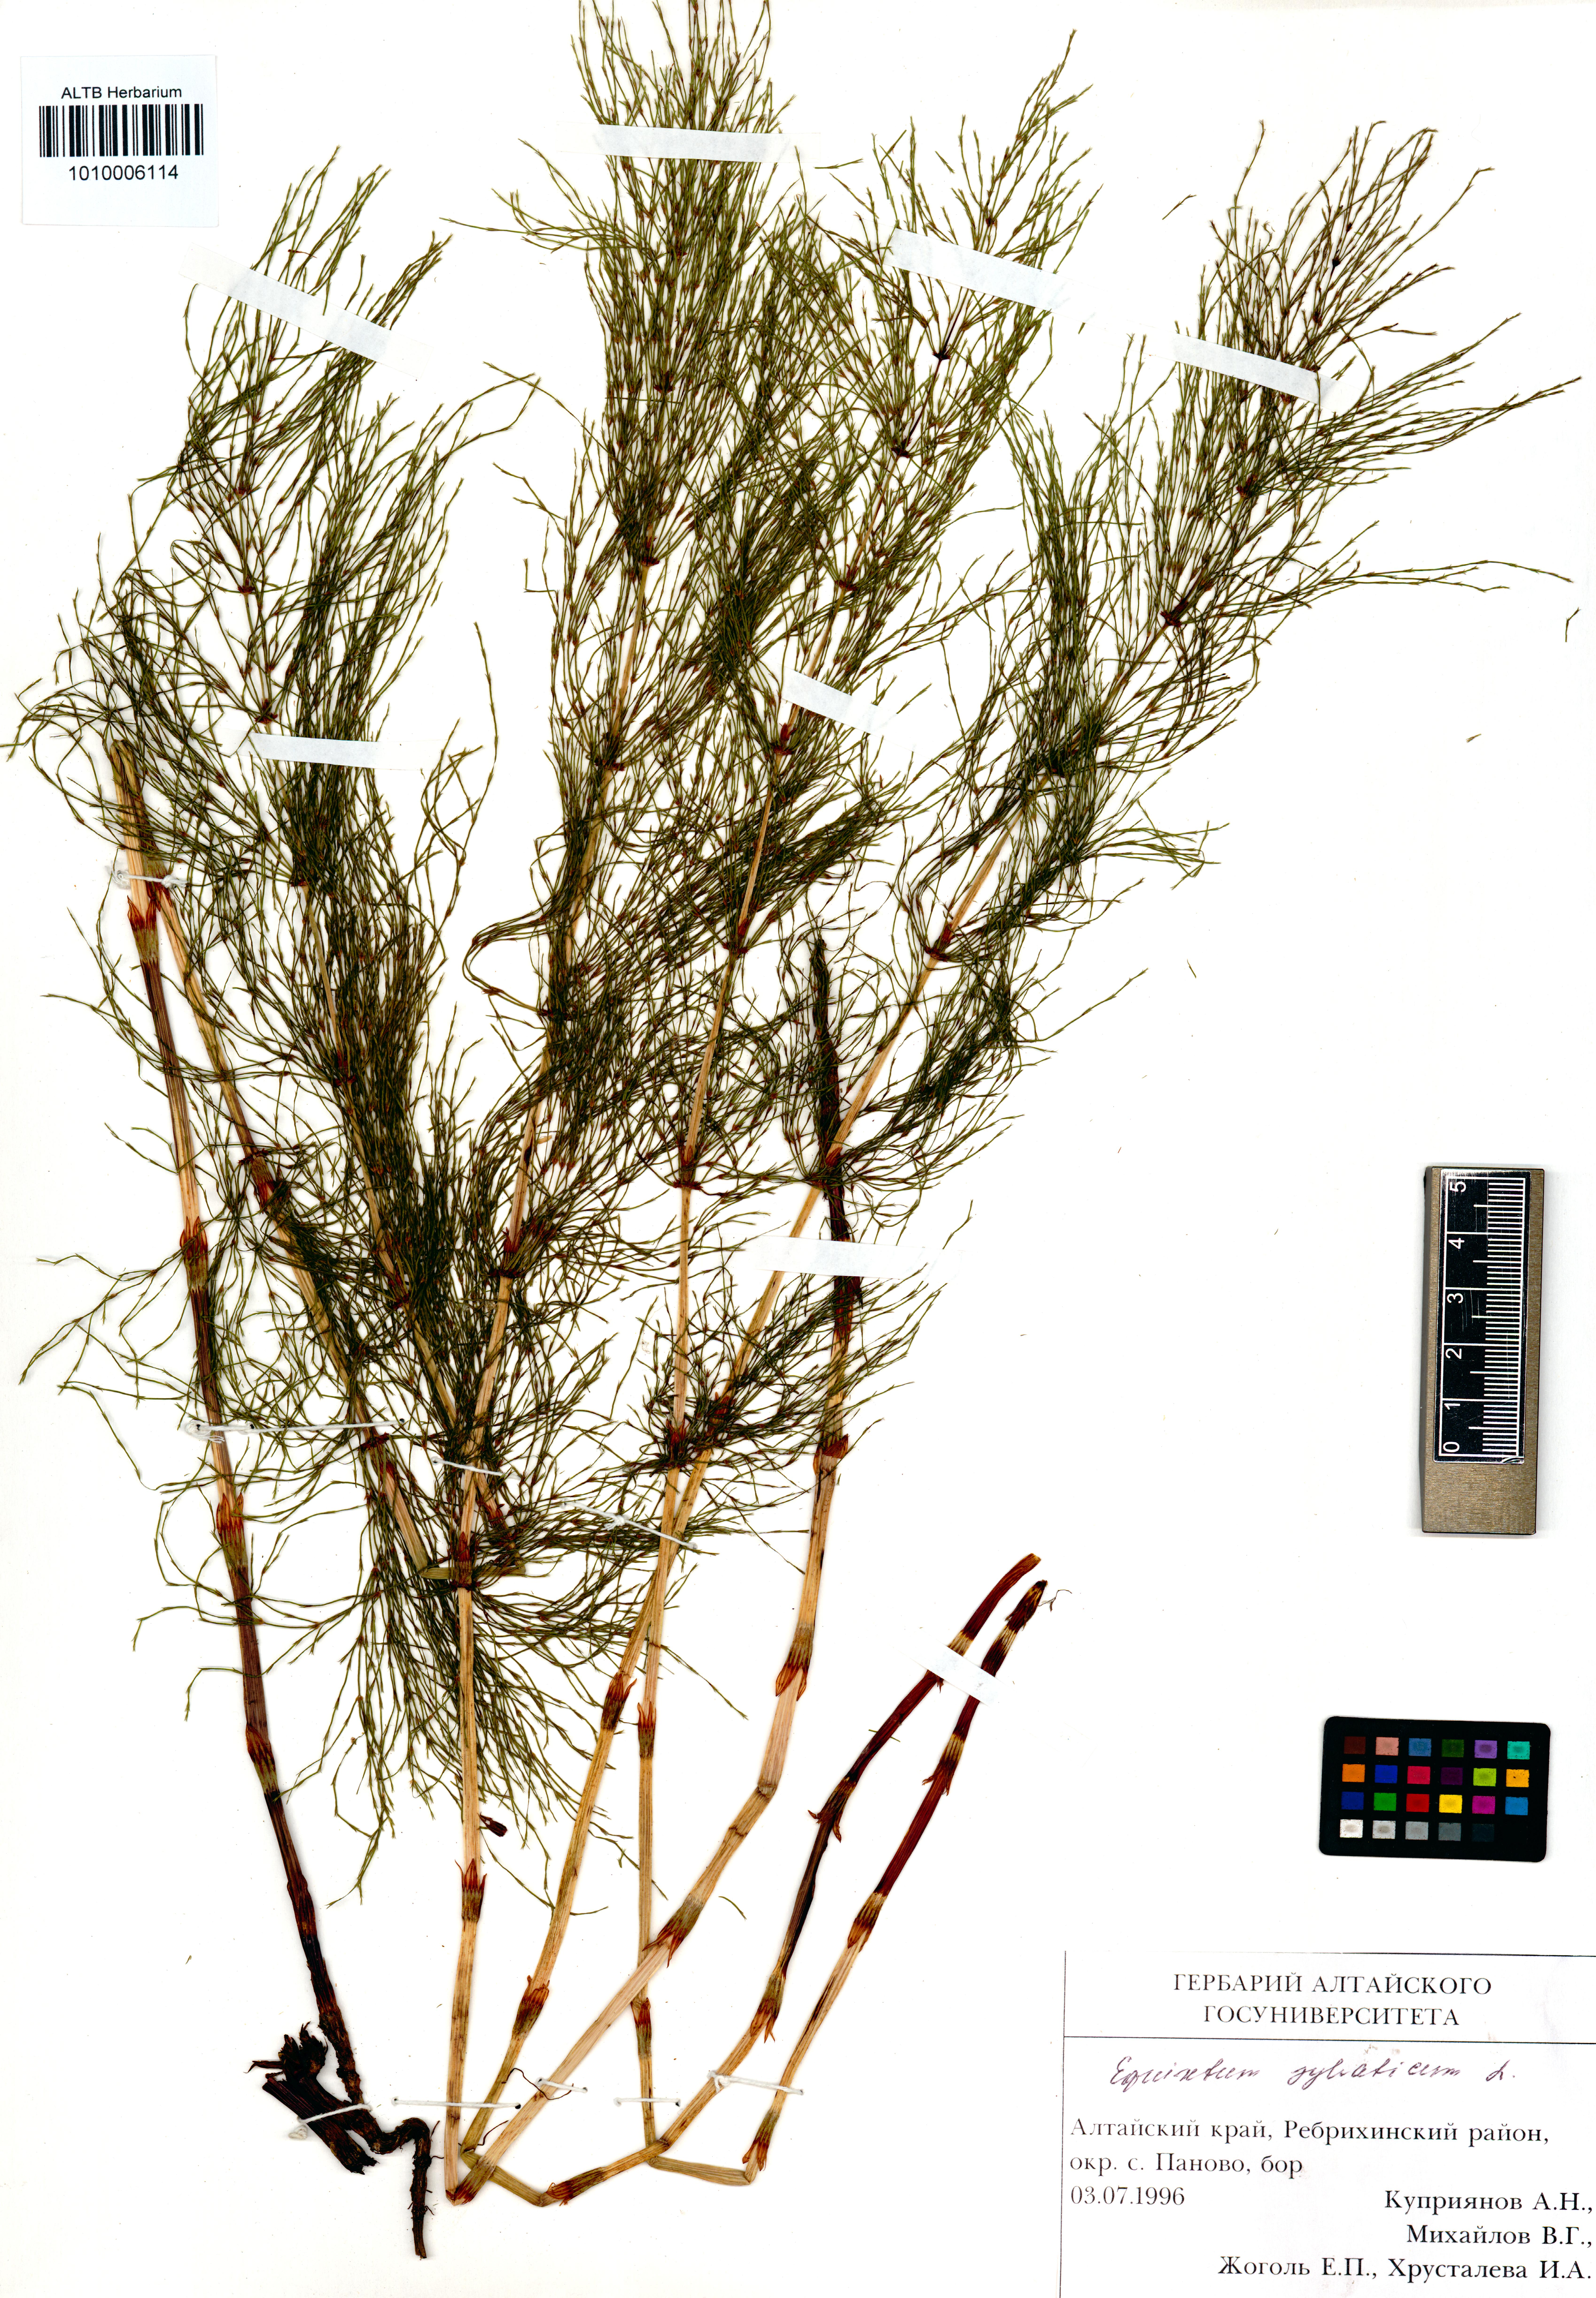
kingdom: Plantae
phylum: Tracheophyta
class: Polypodiopsida
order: Equisetales
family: Equisetaceae
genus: Equisetum
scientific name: Equisetum sylvaticum
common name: Wood horsetail
